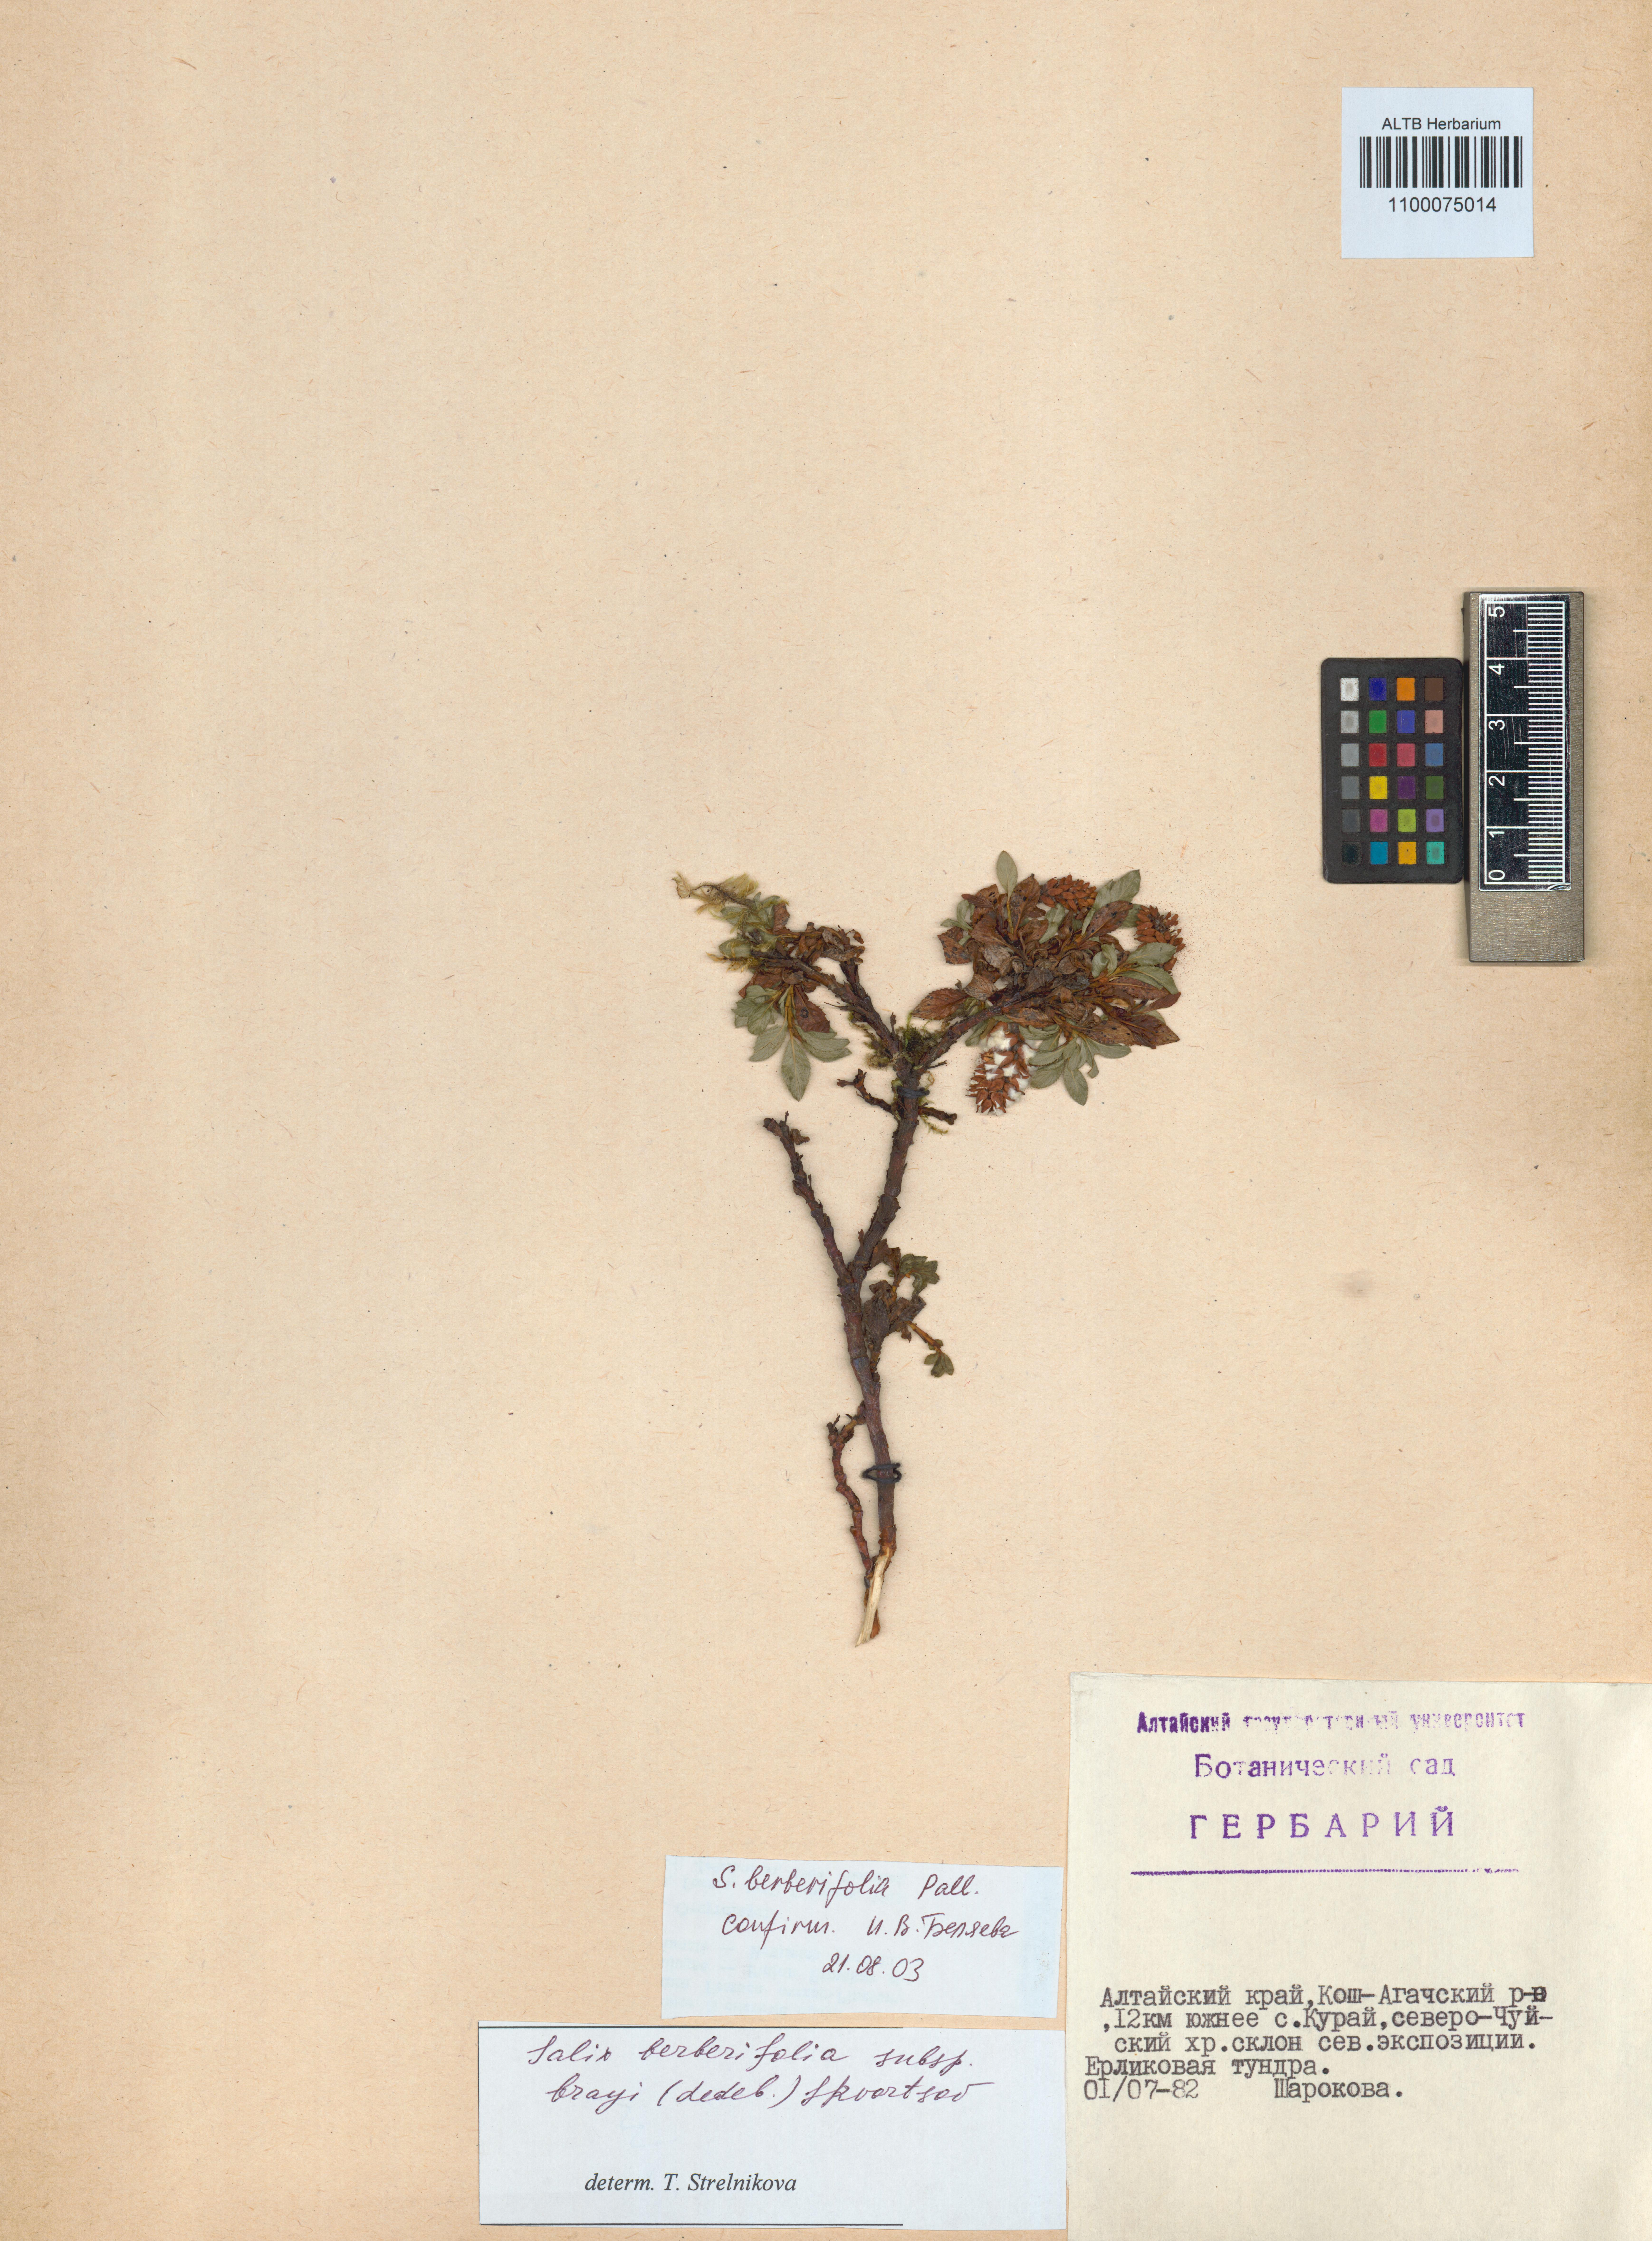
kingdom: Plantae
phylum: Tracheophyta
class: Magnoliopsida
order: Malpighiales
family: Salicaceae
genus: Salix
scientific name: Salix berberifolia
